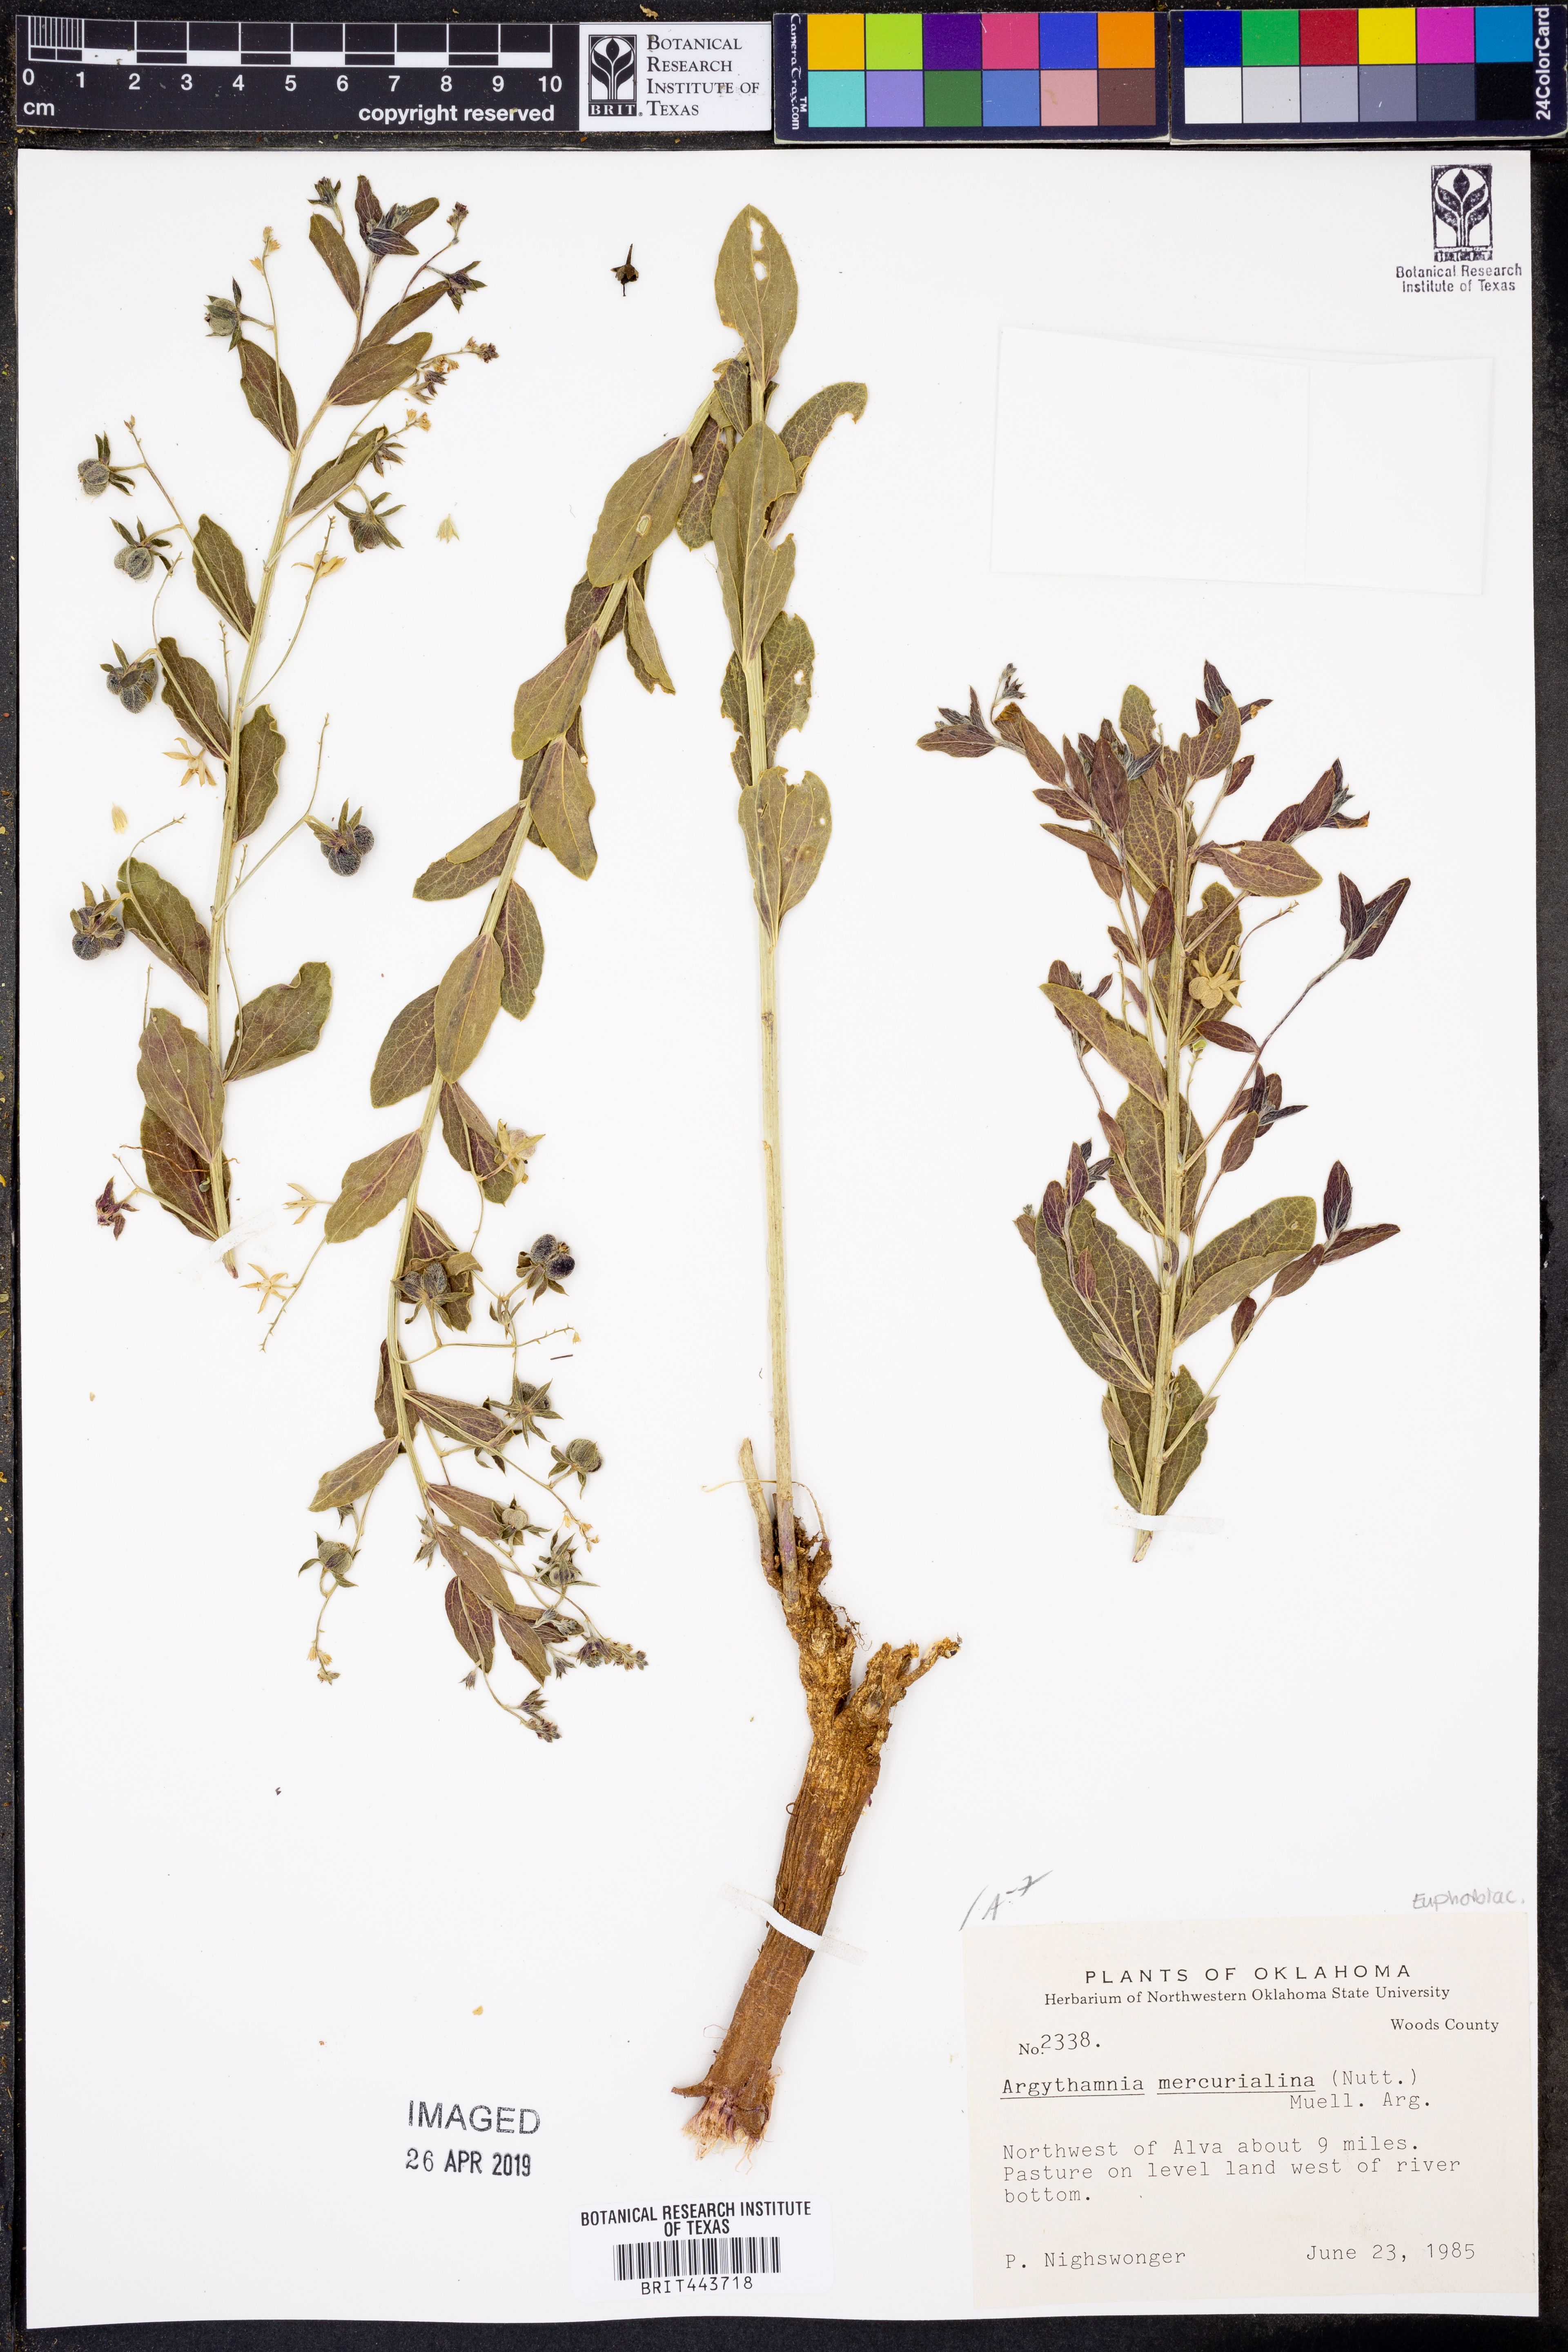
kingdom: Plantae
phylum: Tracheophyta
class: Magnoliopsida
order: Malpighiales
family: Euphorbiaceae
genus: Ditaxis
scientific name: Ditaxis mercurialina
